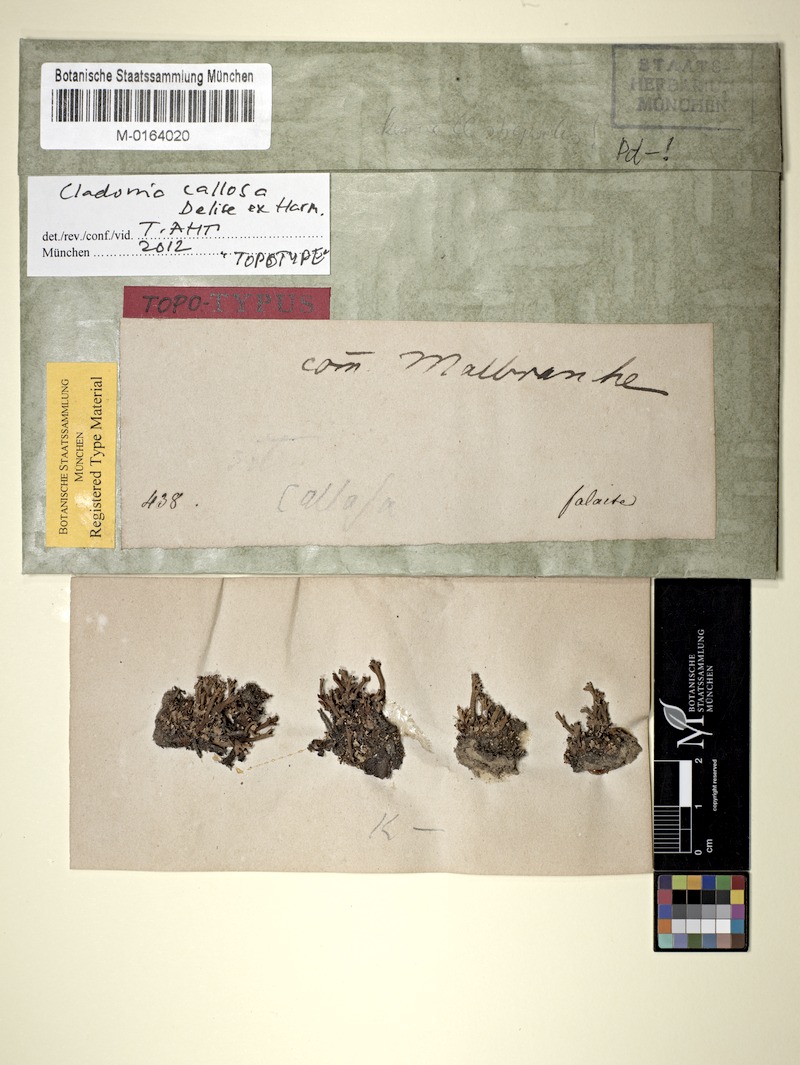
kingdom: Fungi
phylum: Ascomycota
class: Lecanoromycetes
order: Lecanorales
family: Cladoniaceae
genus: Cladonia
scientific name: Cladonia callosa
